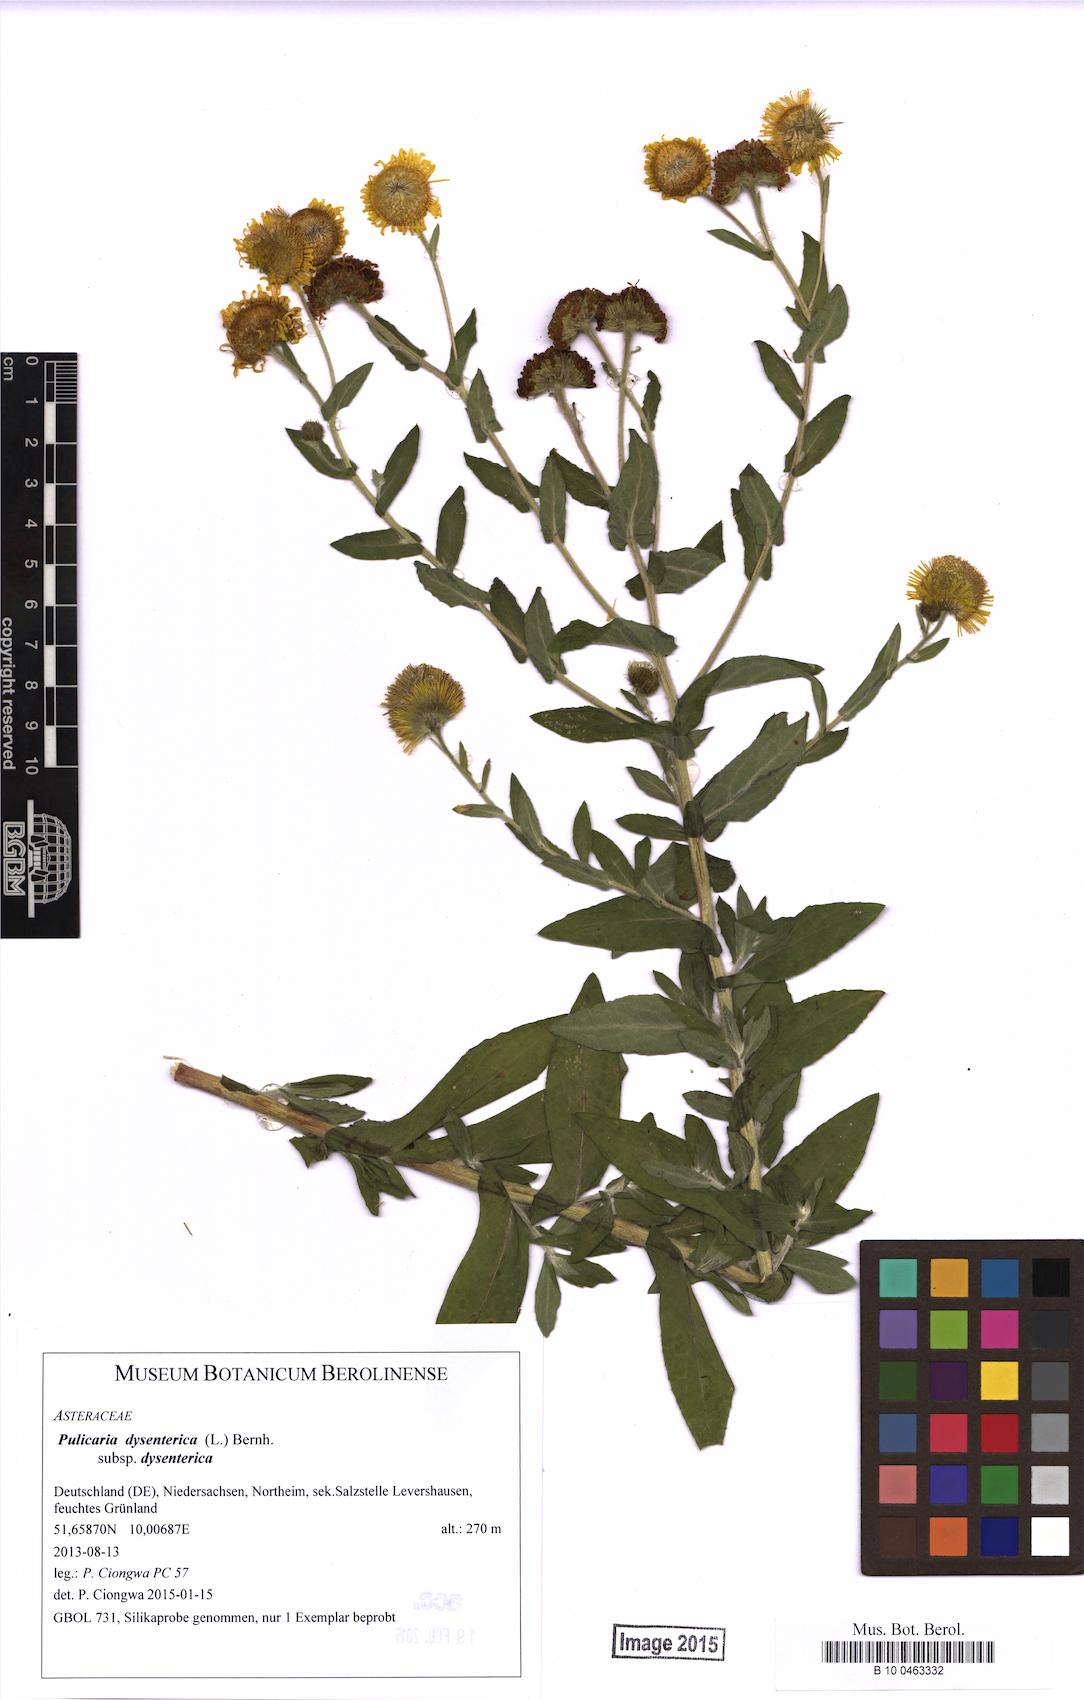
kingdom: Plantae
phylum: Tracheophyta
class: Magnoliopsida
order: Asterales
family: Asteraceae
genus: Pulicaria
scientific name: Pulicaria dysenterica
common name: Common fleabane
